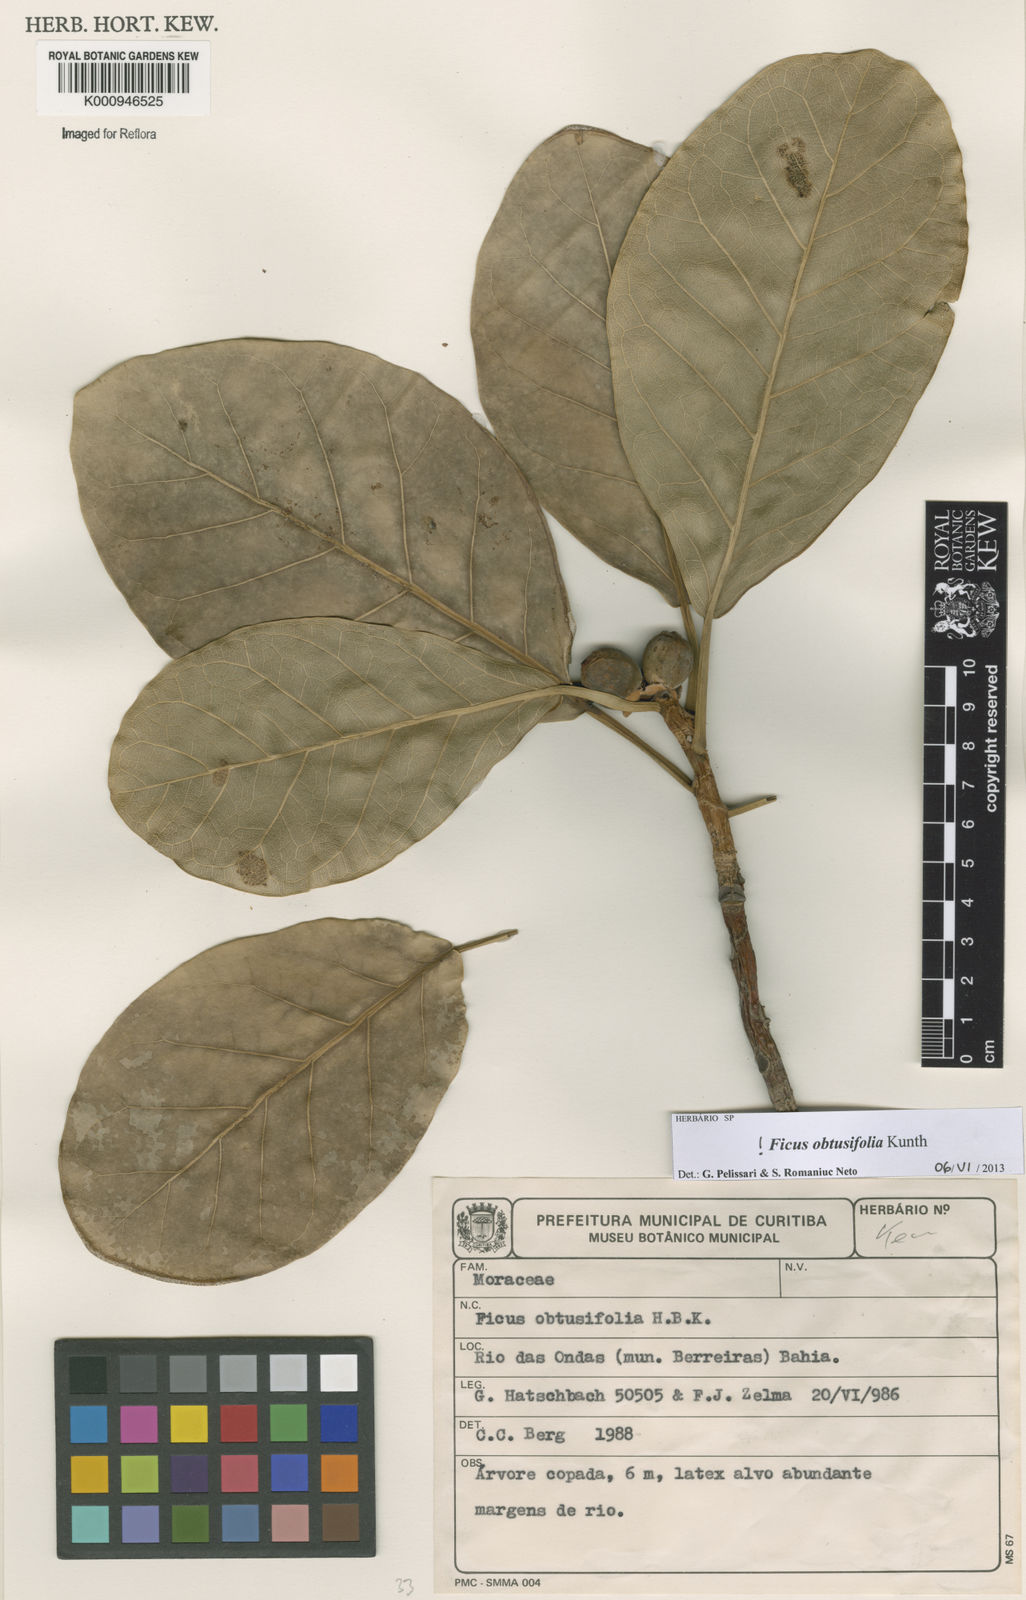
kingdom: Plantae
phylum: Tracheophyta
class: Magnoliopsida
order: Rosales
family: Moraceae
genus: Ficus
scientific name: Ficus obtusifolia
